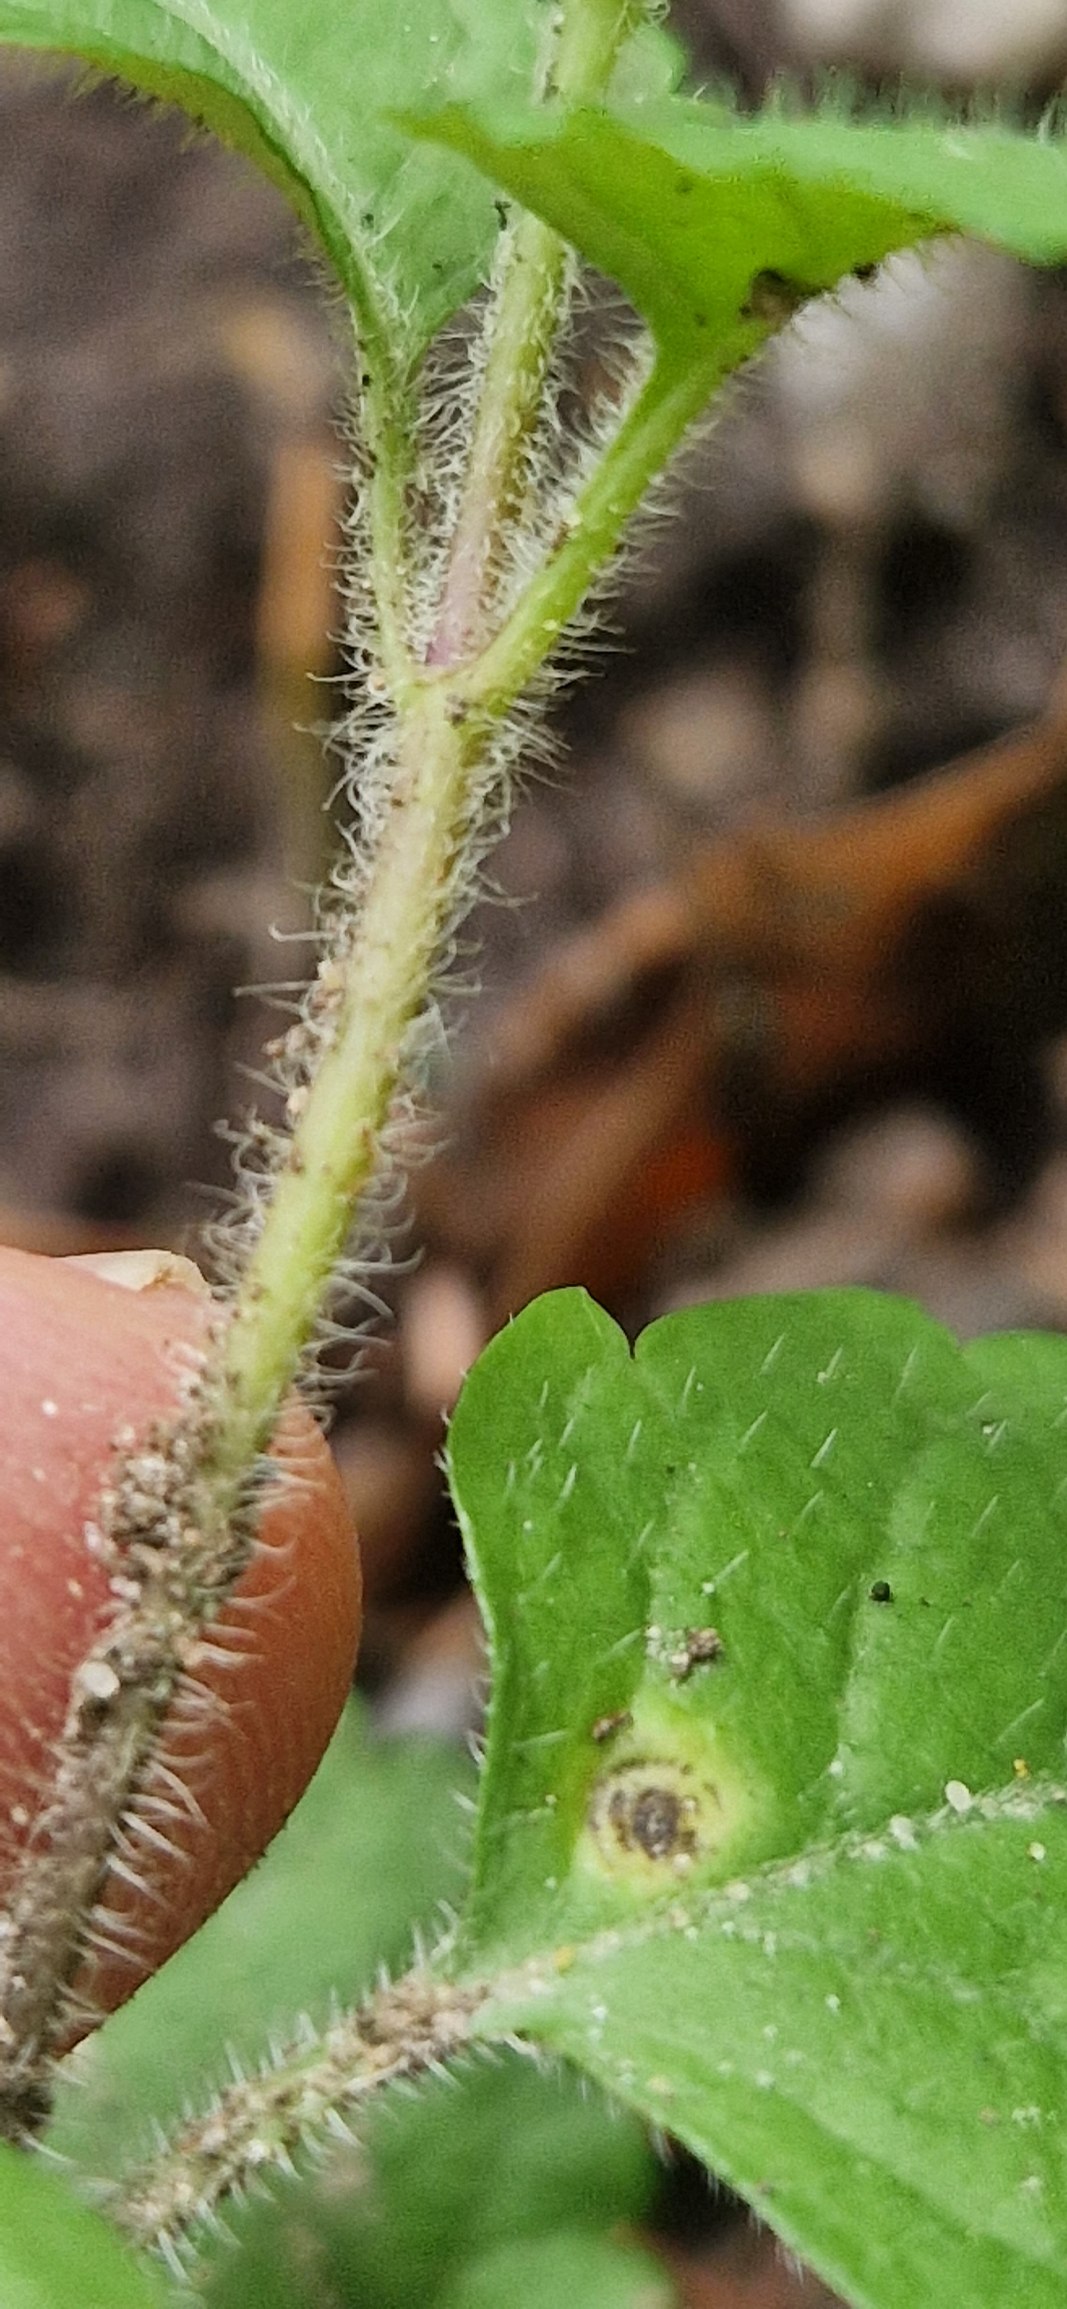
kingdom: Plantae
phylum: Tracheophyta
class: Magnoliopsida
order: Lamiales
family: Plantaginaceae
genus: Veronica
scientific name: Veronica montana
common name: Bjerg-ærenpris
